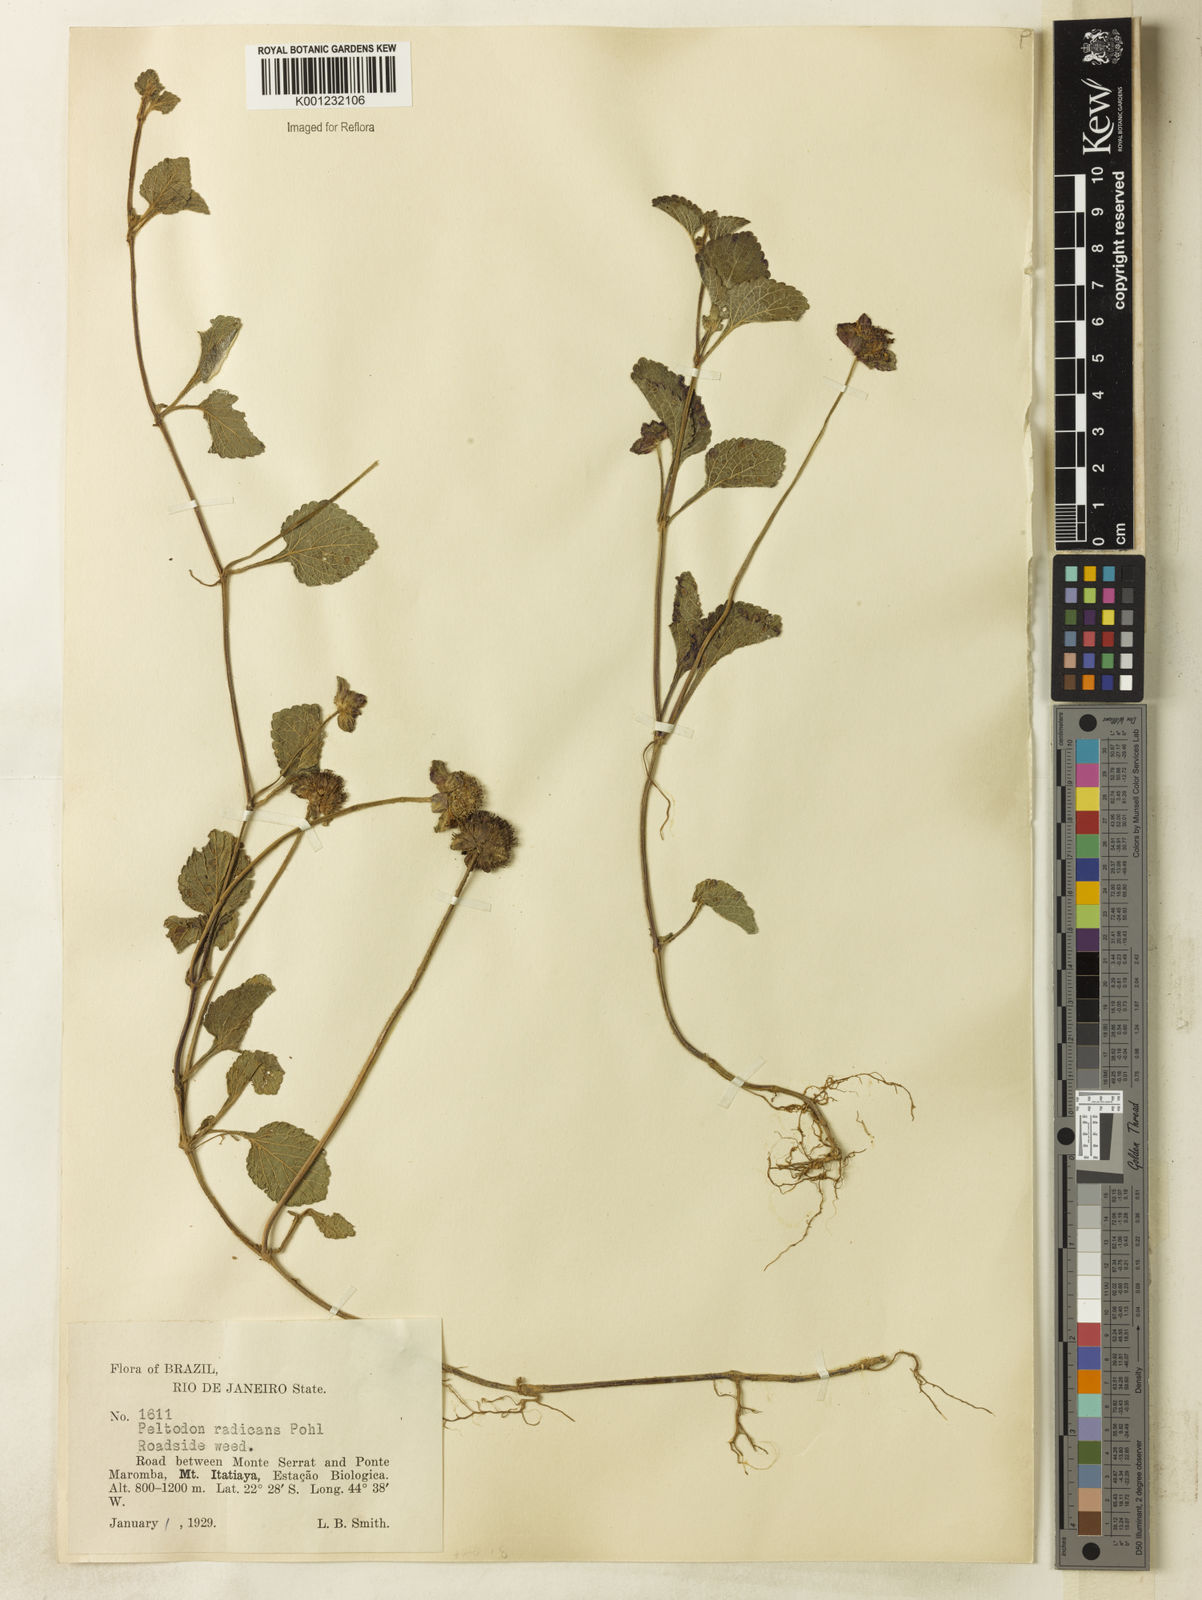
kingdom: Plantae
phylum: Tracheophyta
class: Magnoliopsida
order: Lamiales
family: Lamiaceae
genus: Hyptis
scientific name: Hyptis radicans
